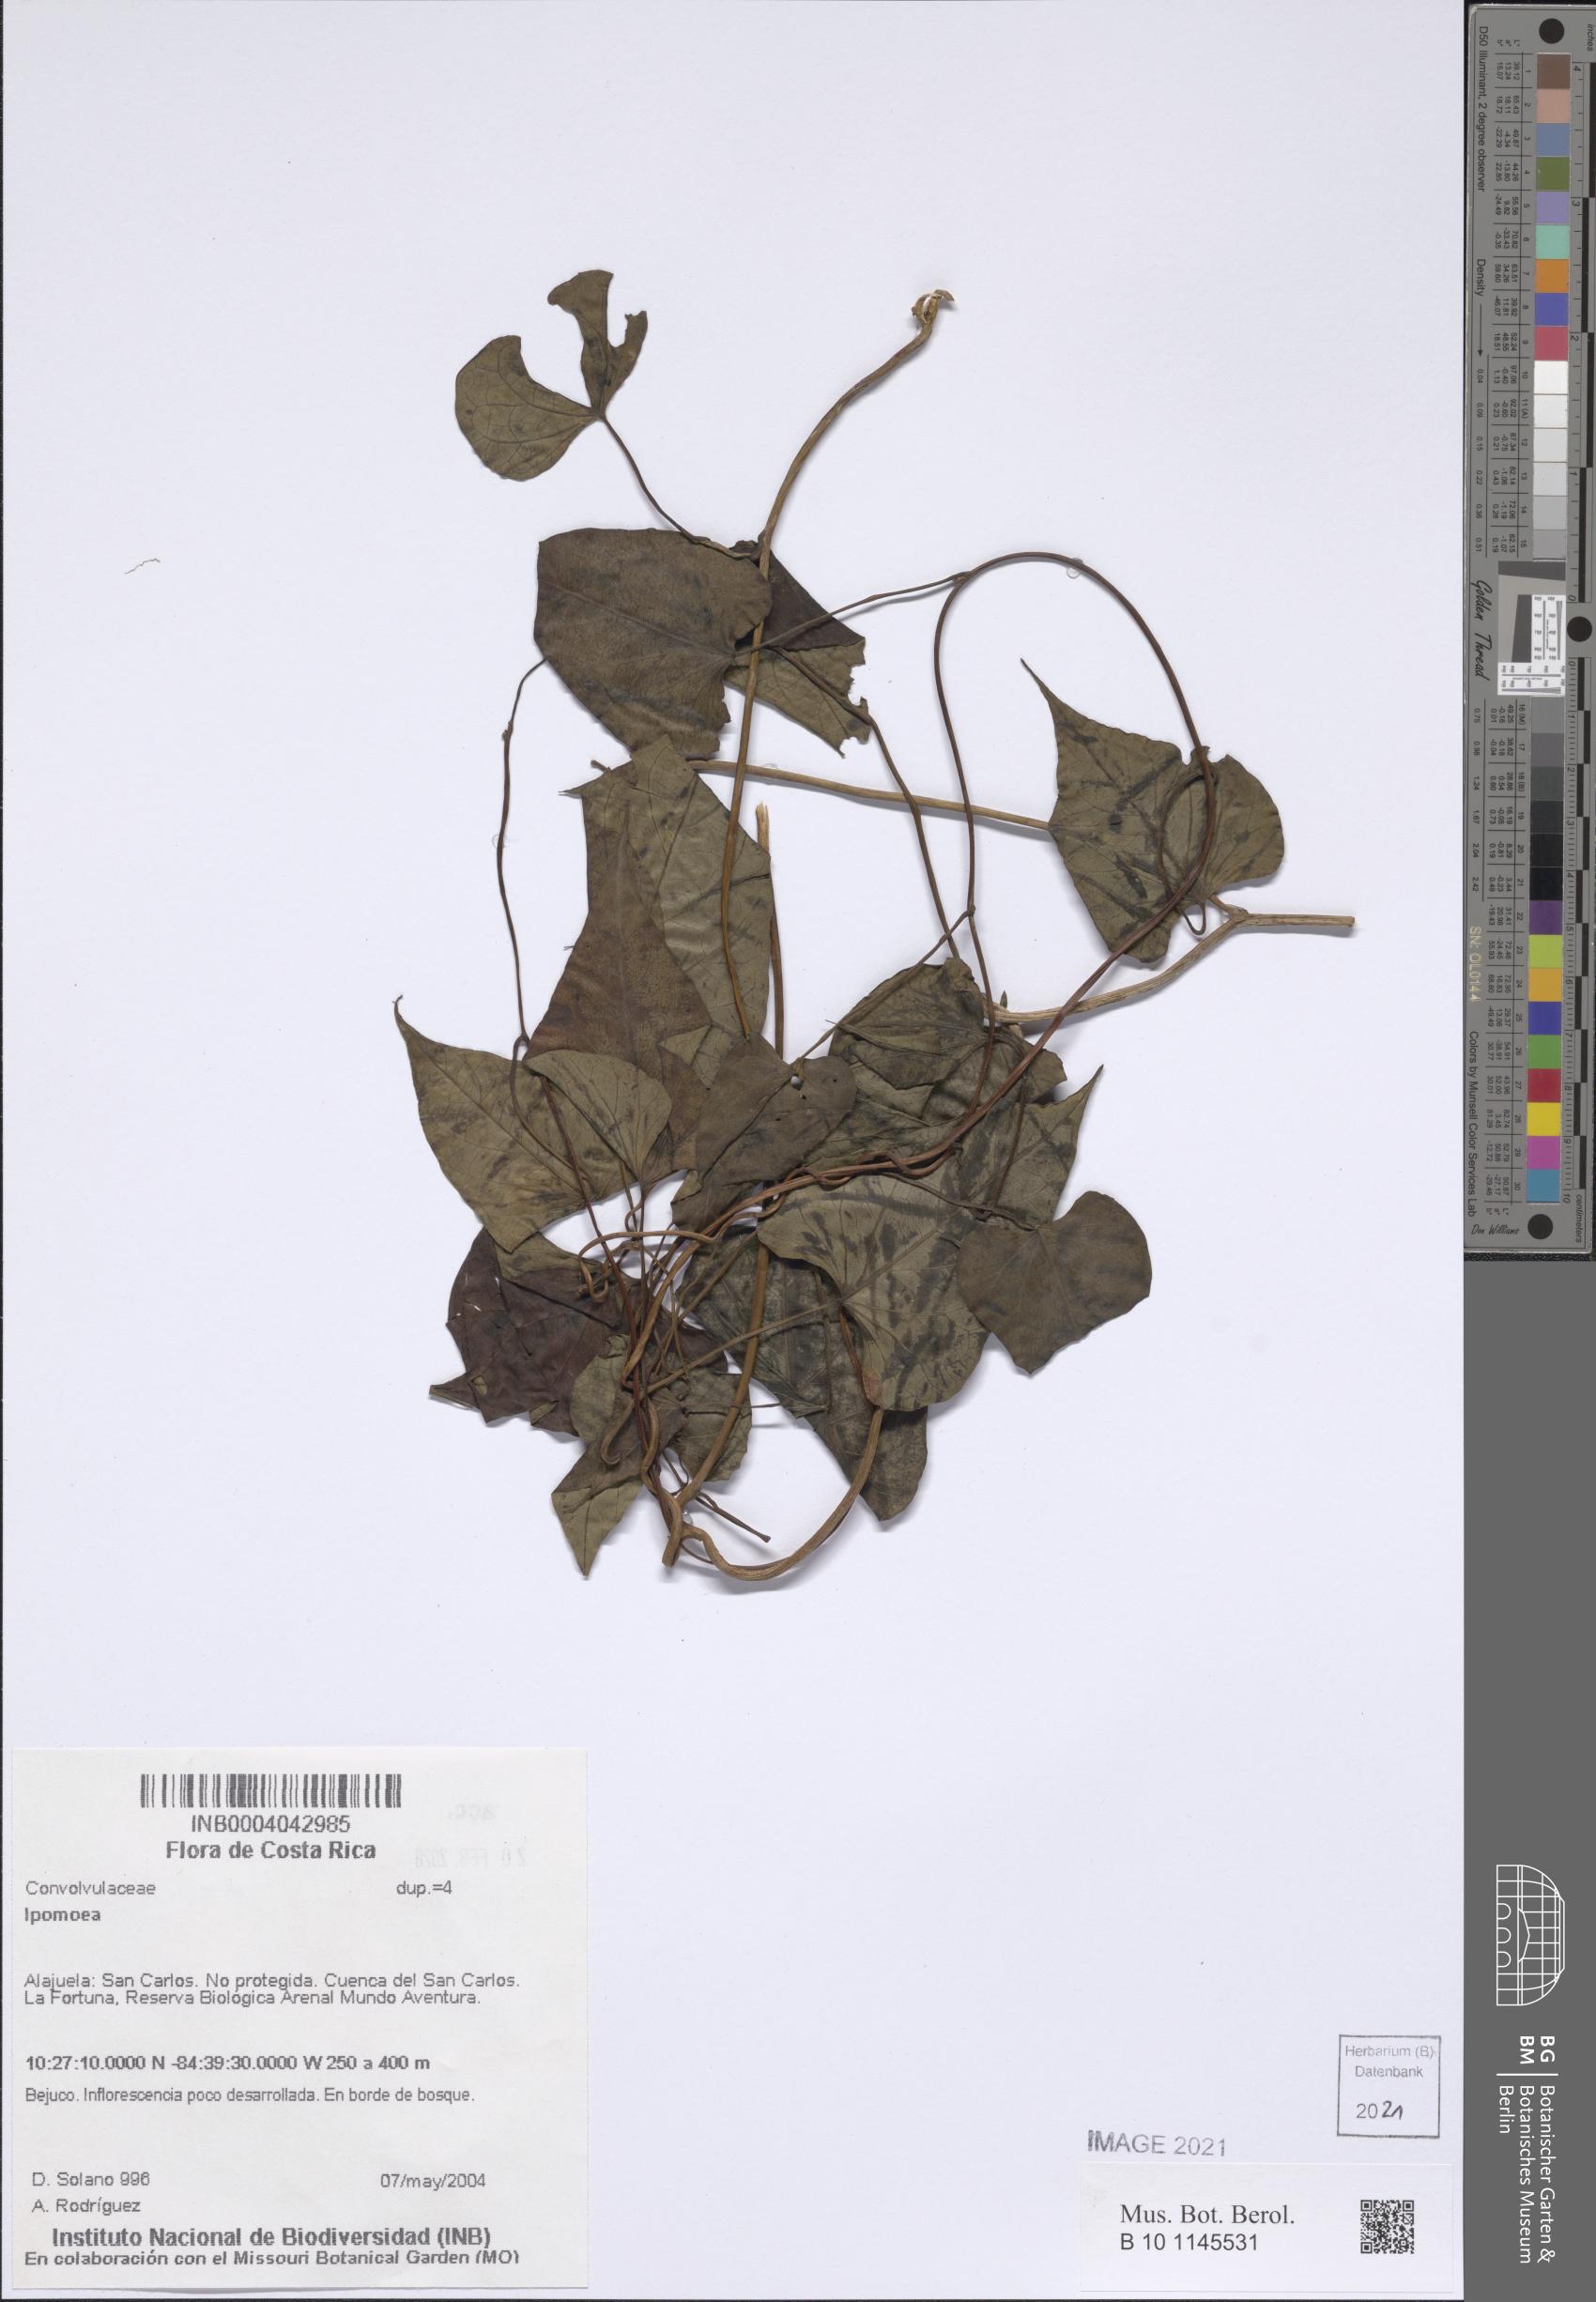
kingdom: Plantae
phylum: Tracheophyta
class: Magnoliopsida
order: Solanales
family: Convolvulaceae
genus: Ipomoea
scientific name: Ipomoea
